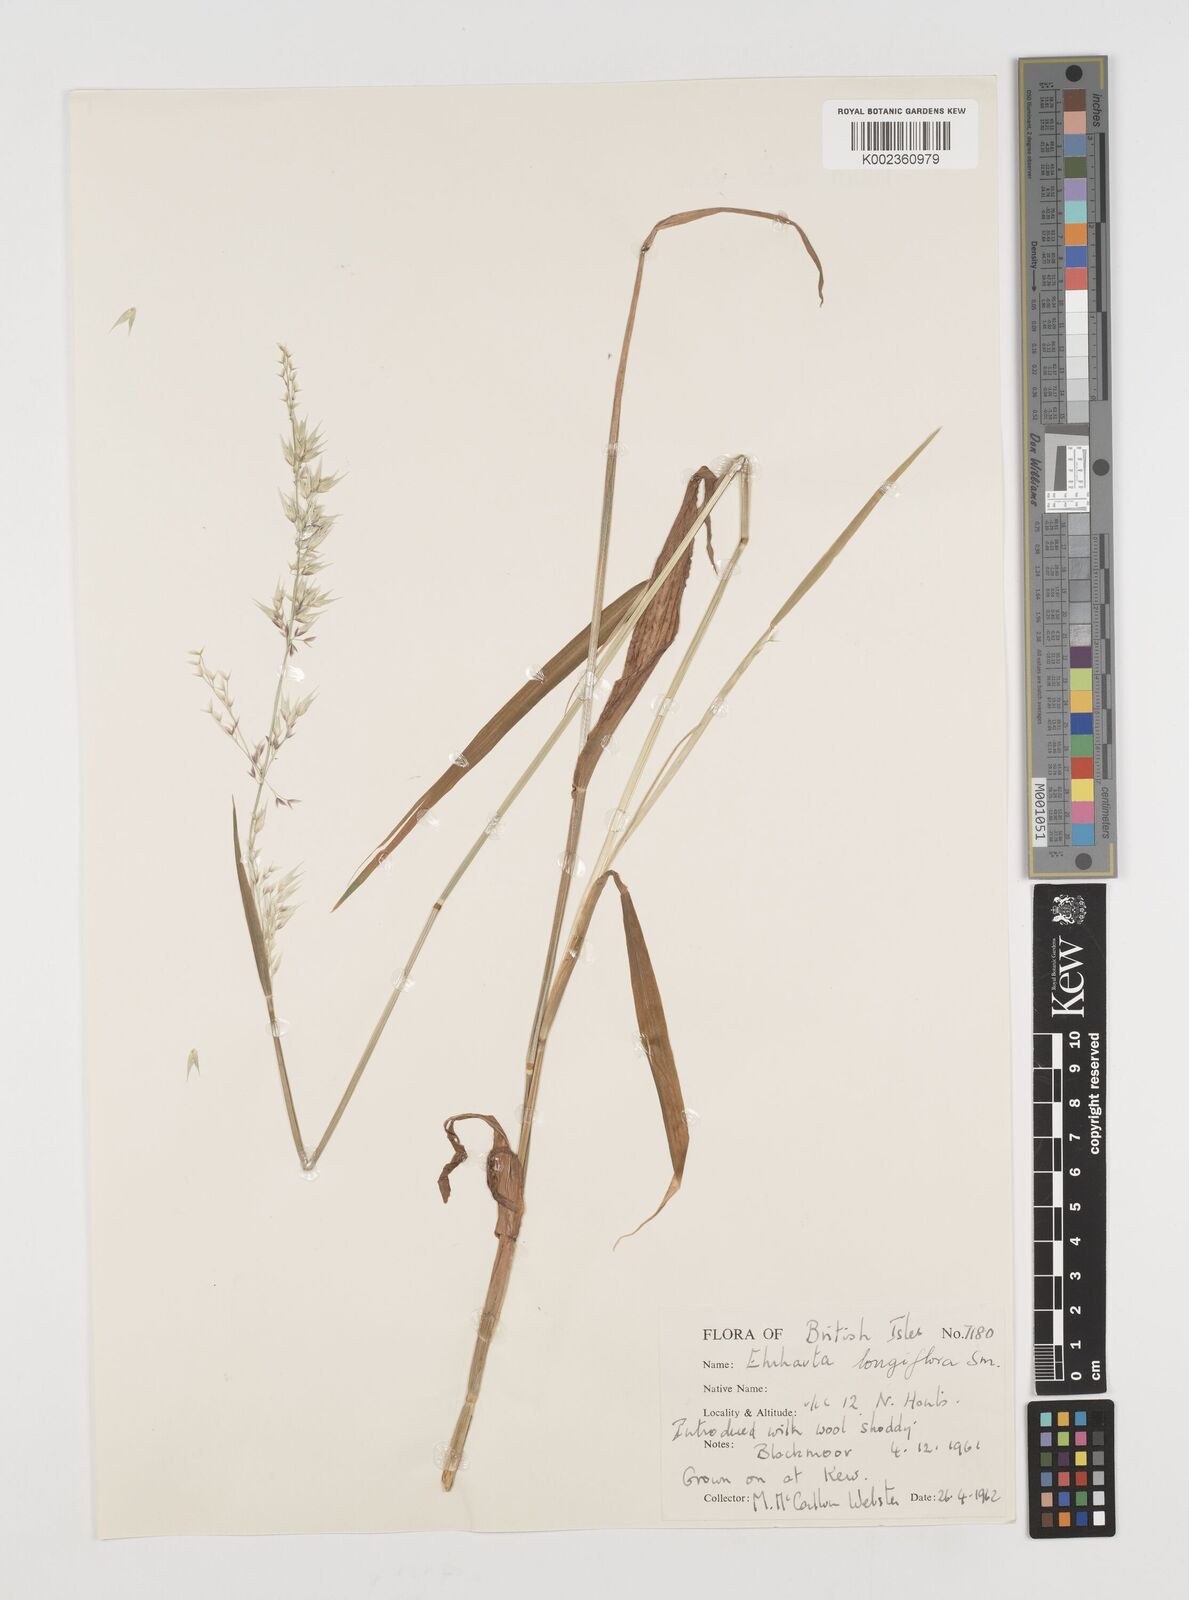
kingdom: Plantae
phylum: Tracheophyta
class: Liliopsida
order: Poales
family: Poaceae
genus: Ehrharta
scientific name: Ehrharta longiflora
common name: Longflowered veldtgrass
